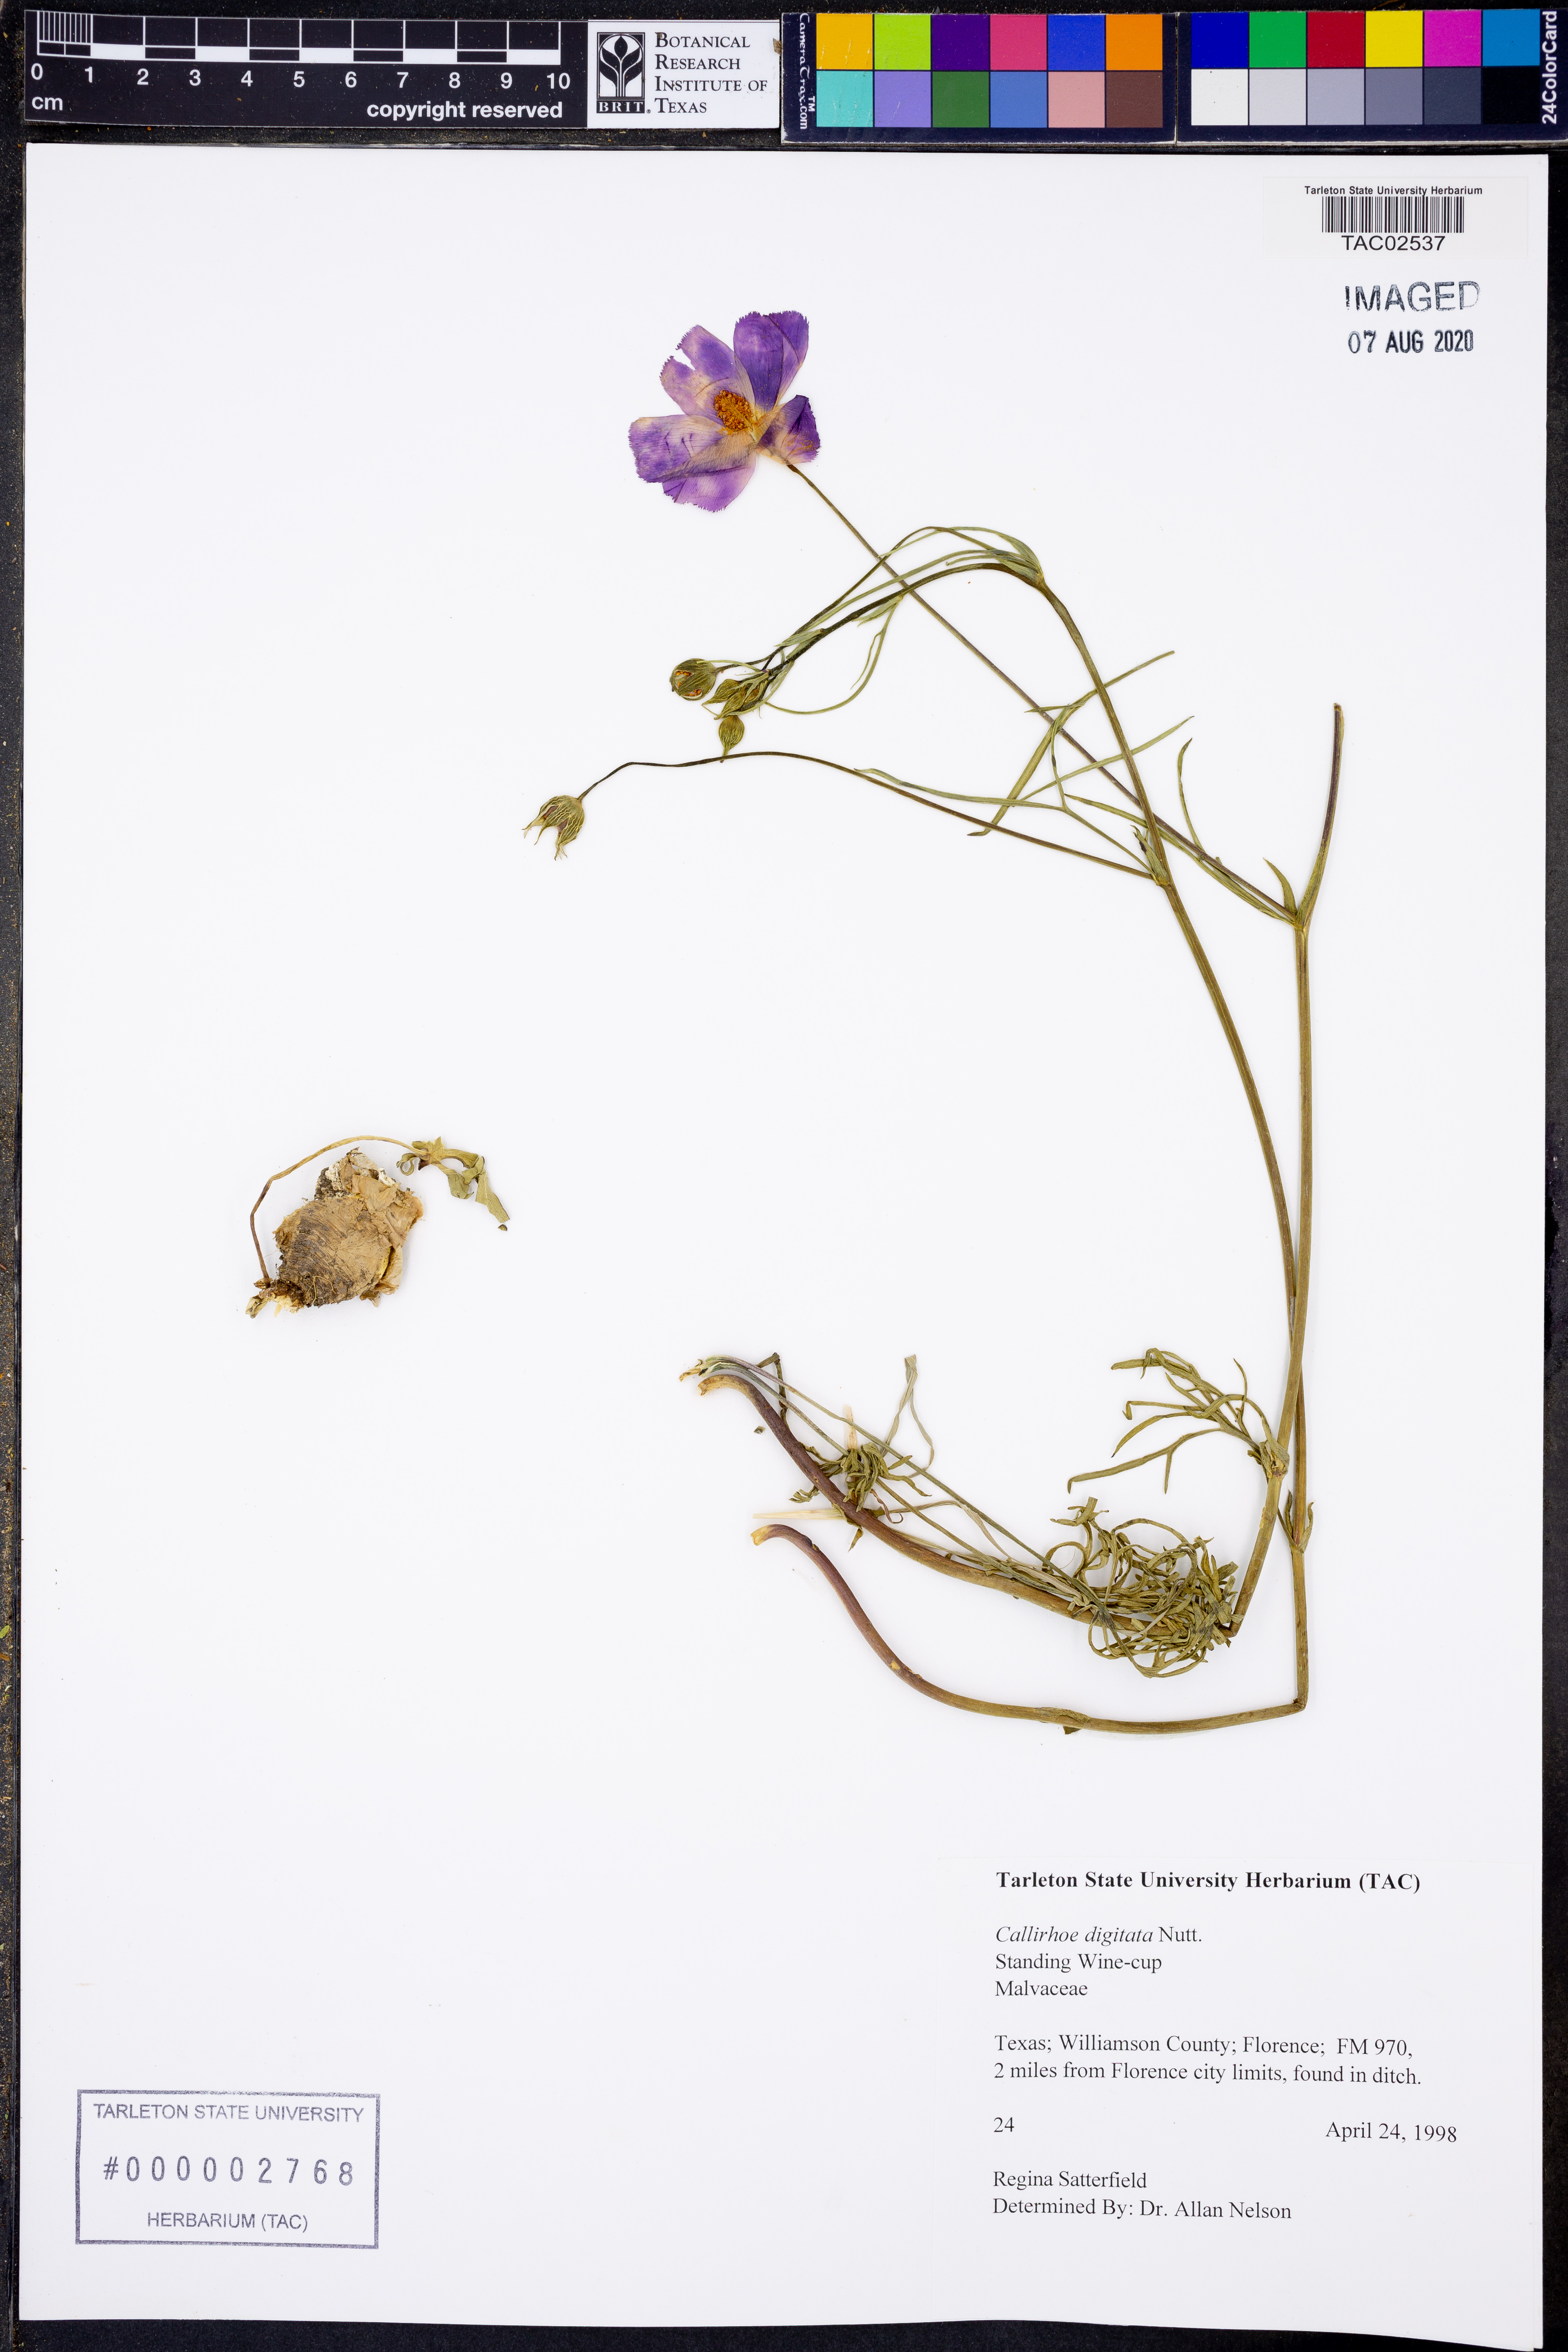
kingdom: Plantae
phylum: Tracheophyta
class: Magnoliopsida
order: Malvales
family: Malvaceae
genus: Callirhoe
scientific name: Callirhoe digitata
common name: Finger poppy-mallow
